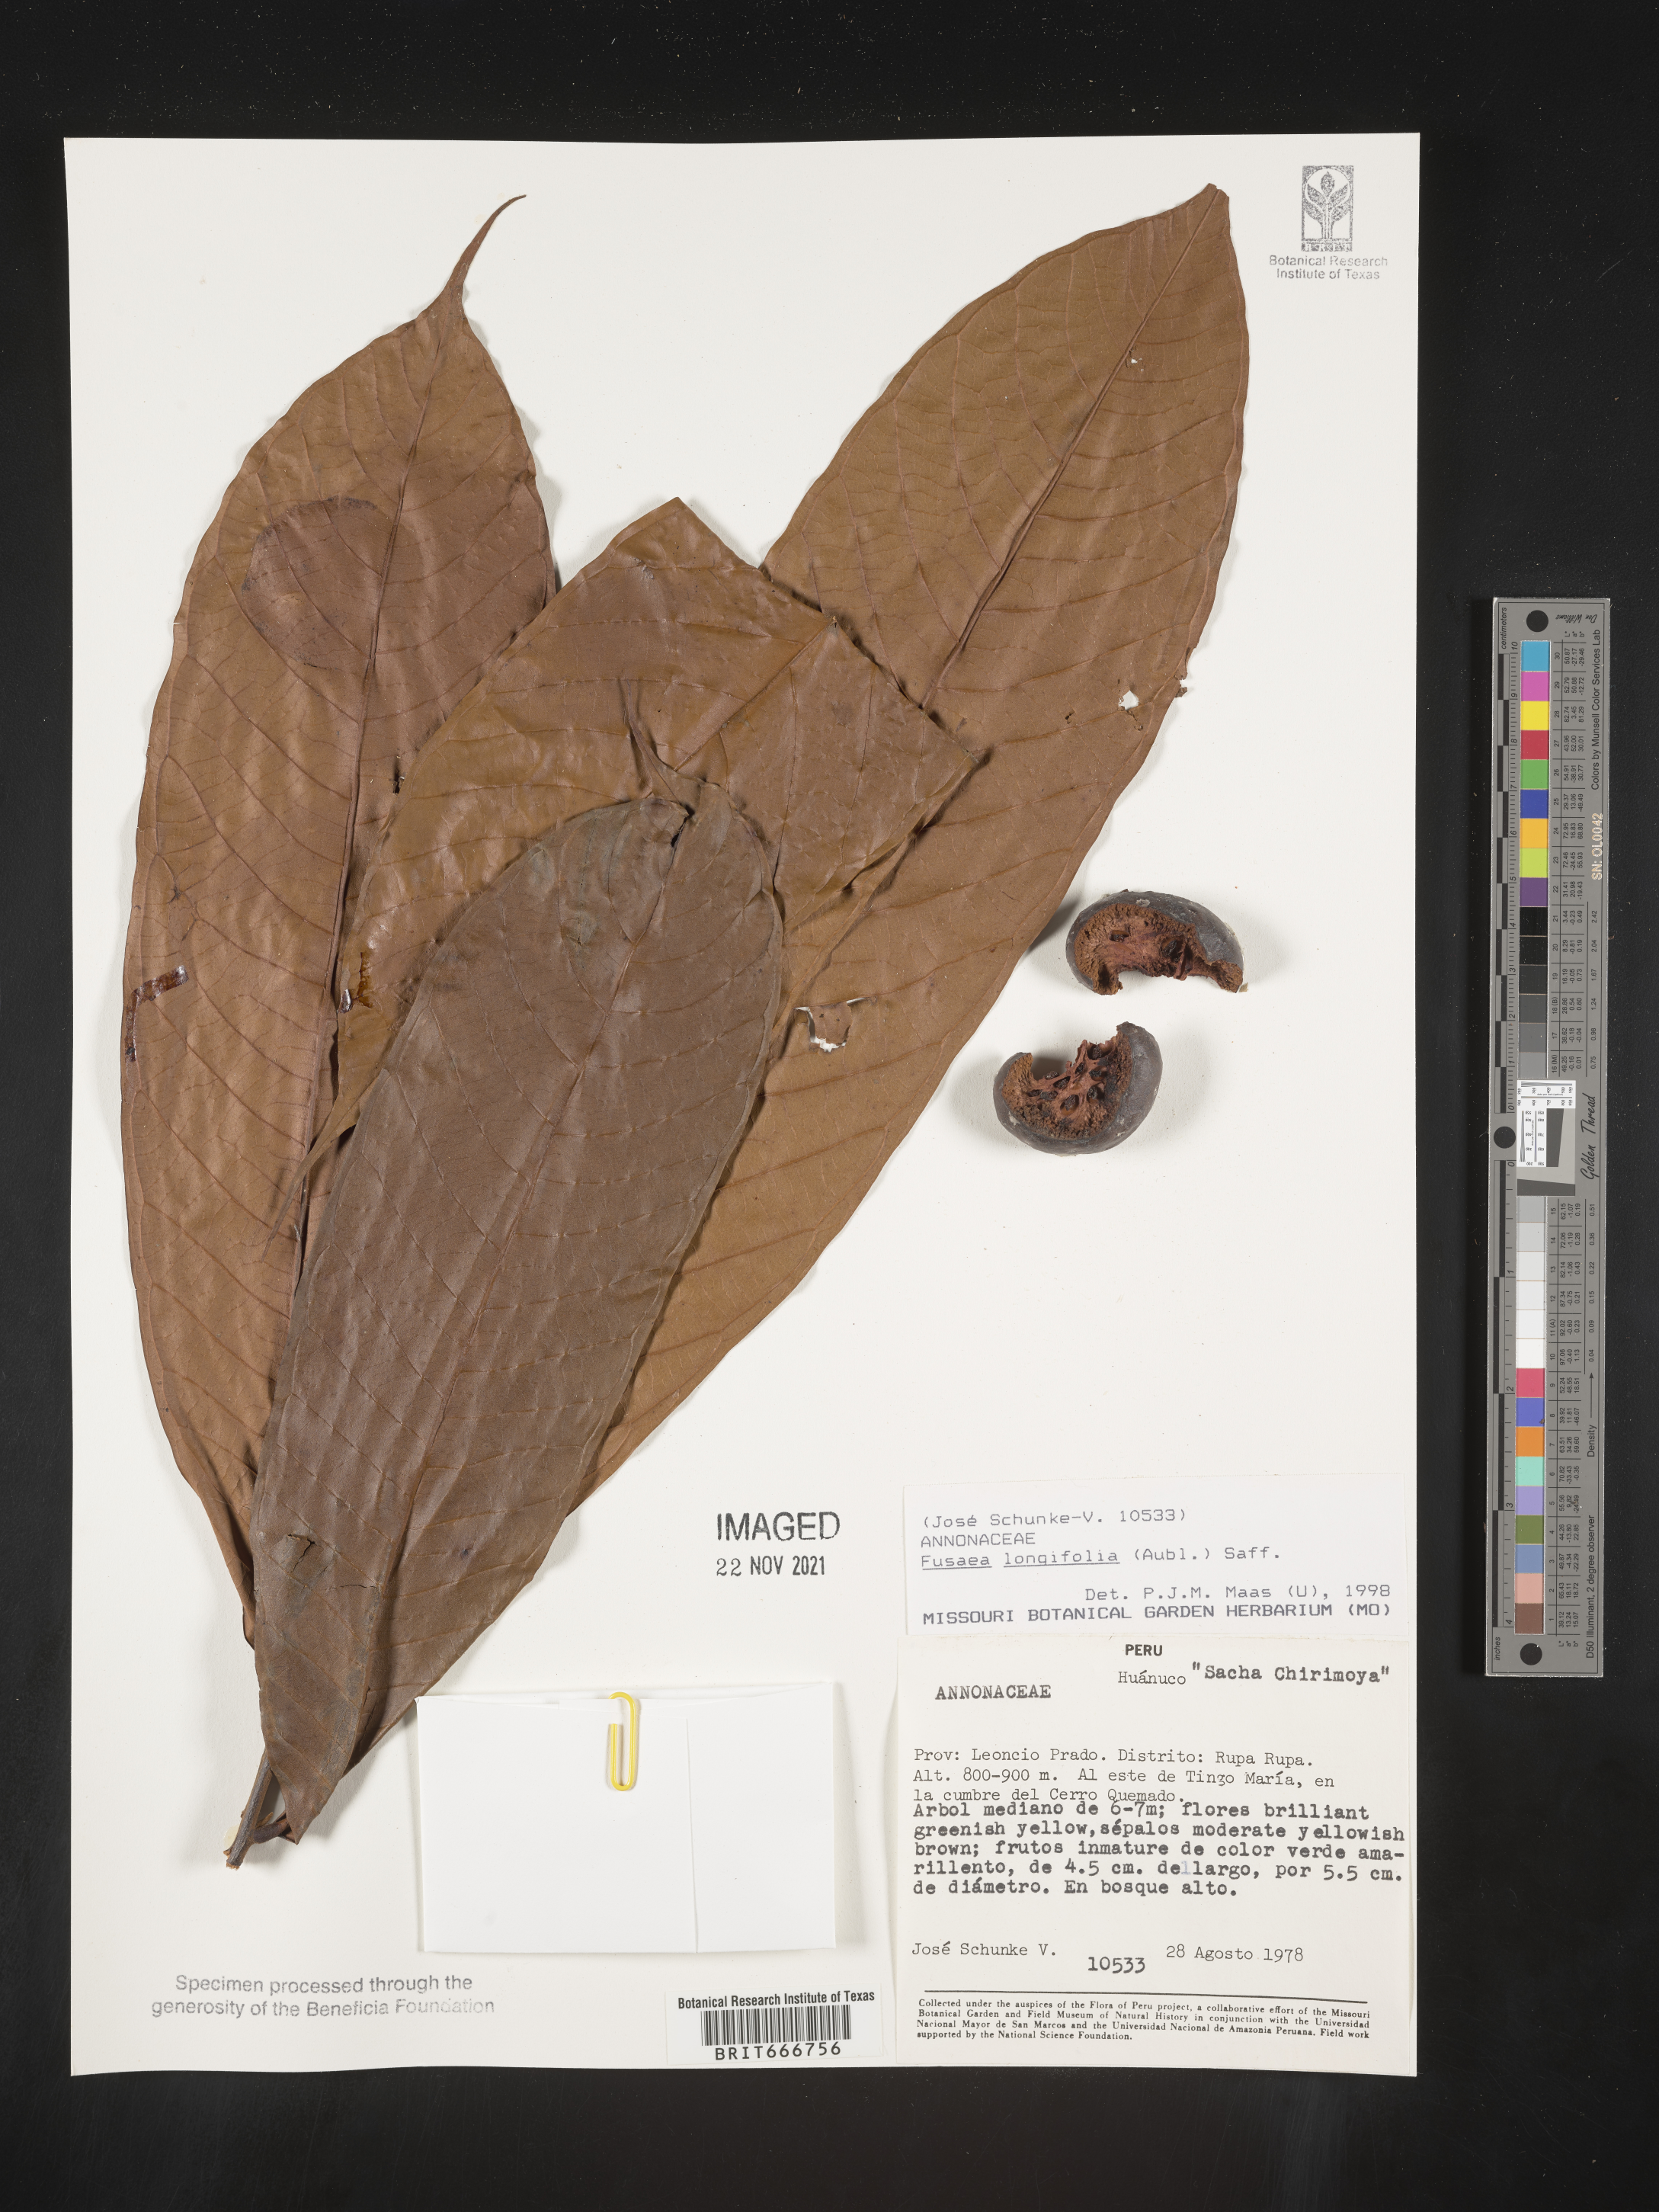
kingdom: Plantae
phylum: Tracheophyta
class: Magnoliopsida
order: Magnoliales
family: Annonaceae
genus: Fusaea
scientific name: Fusaea
